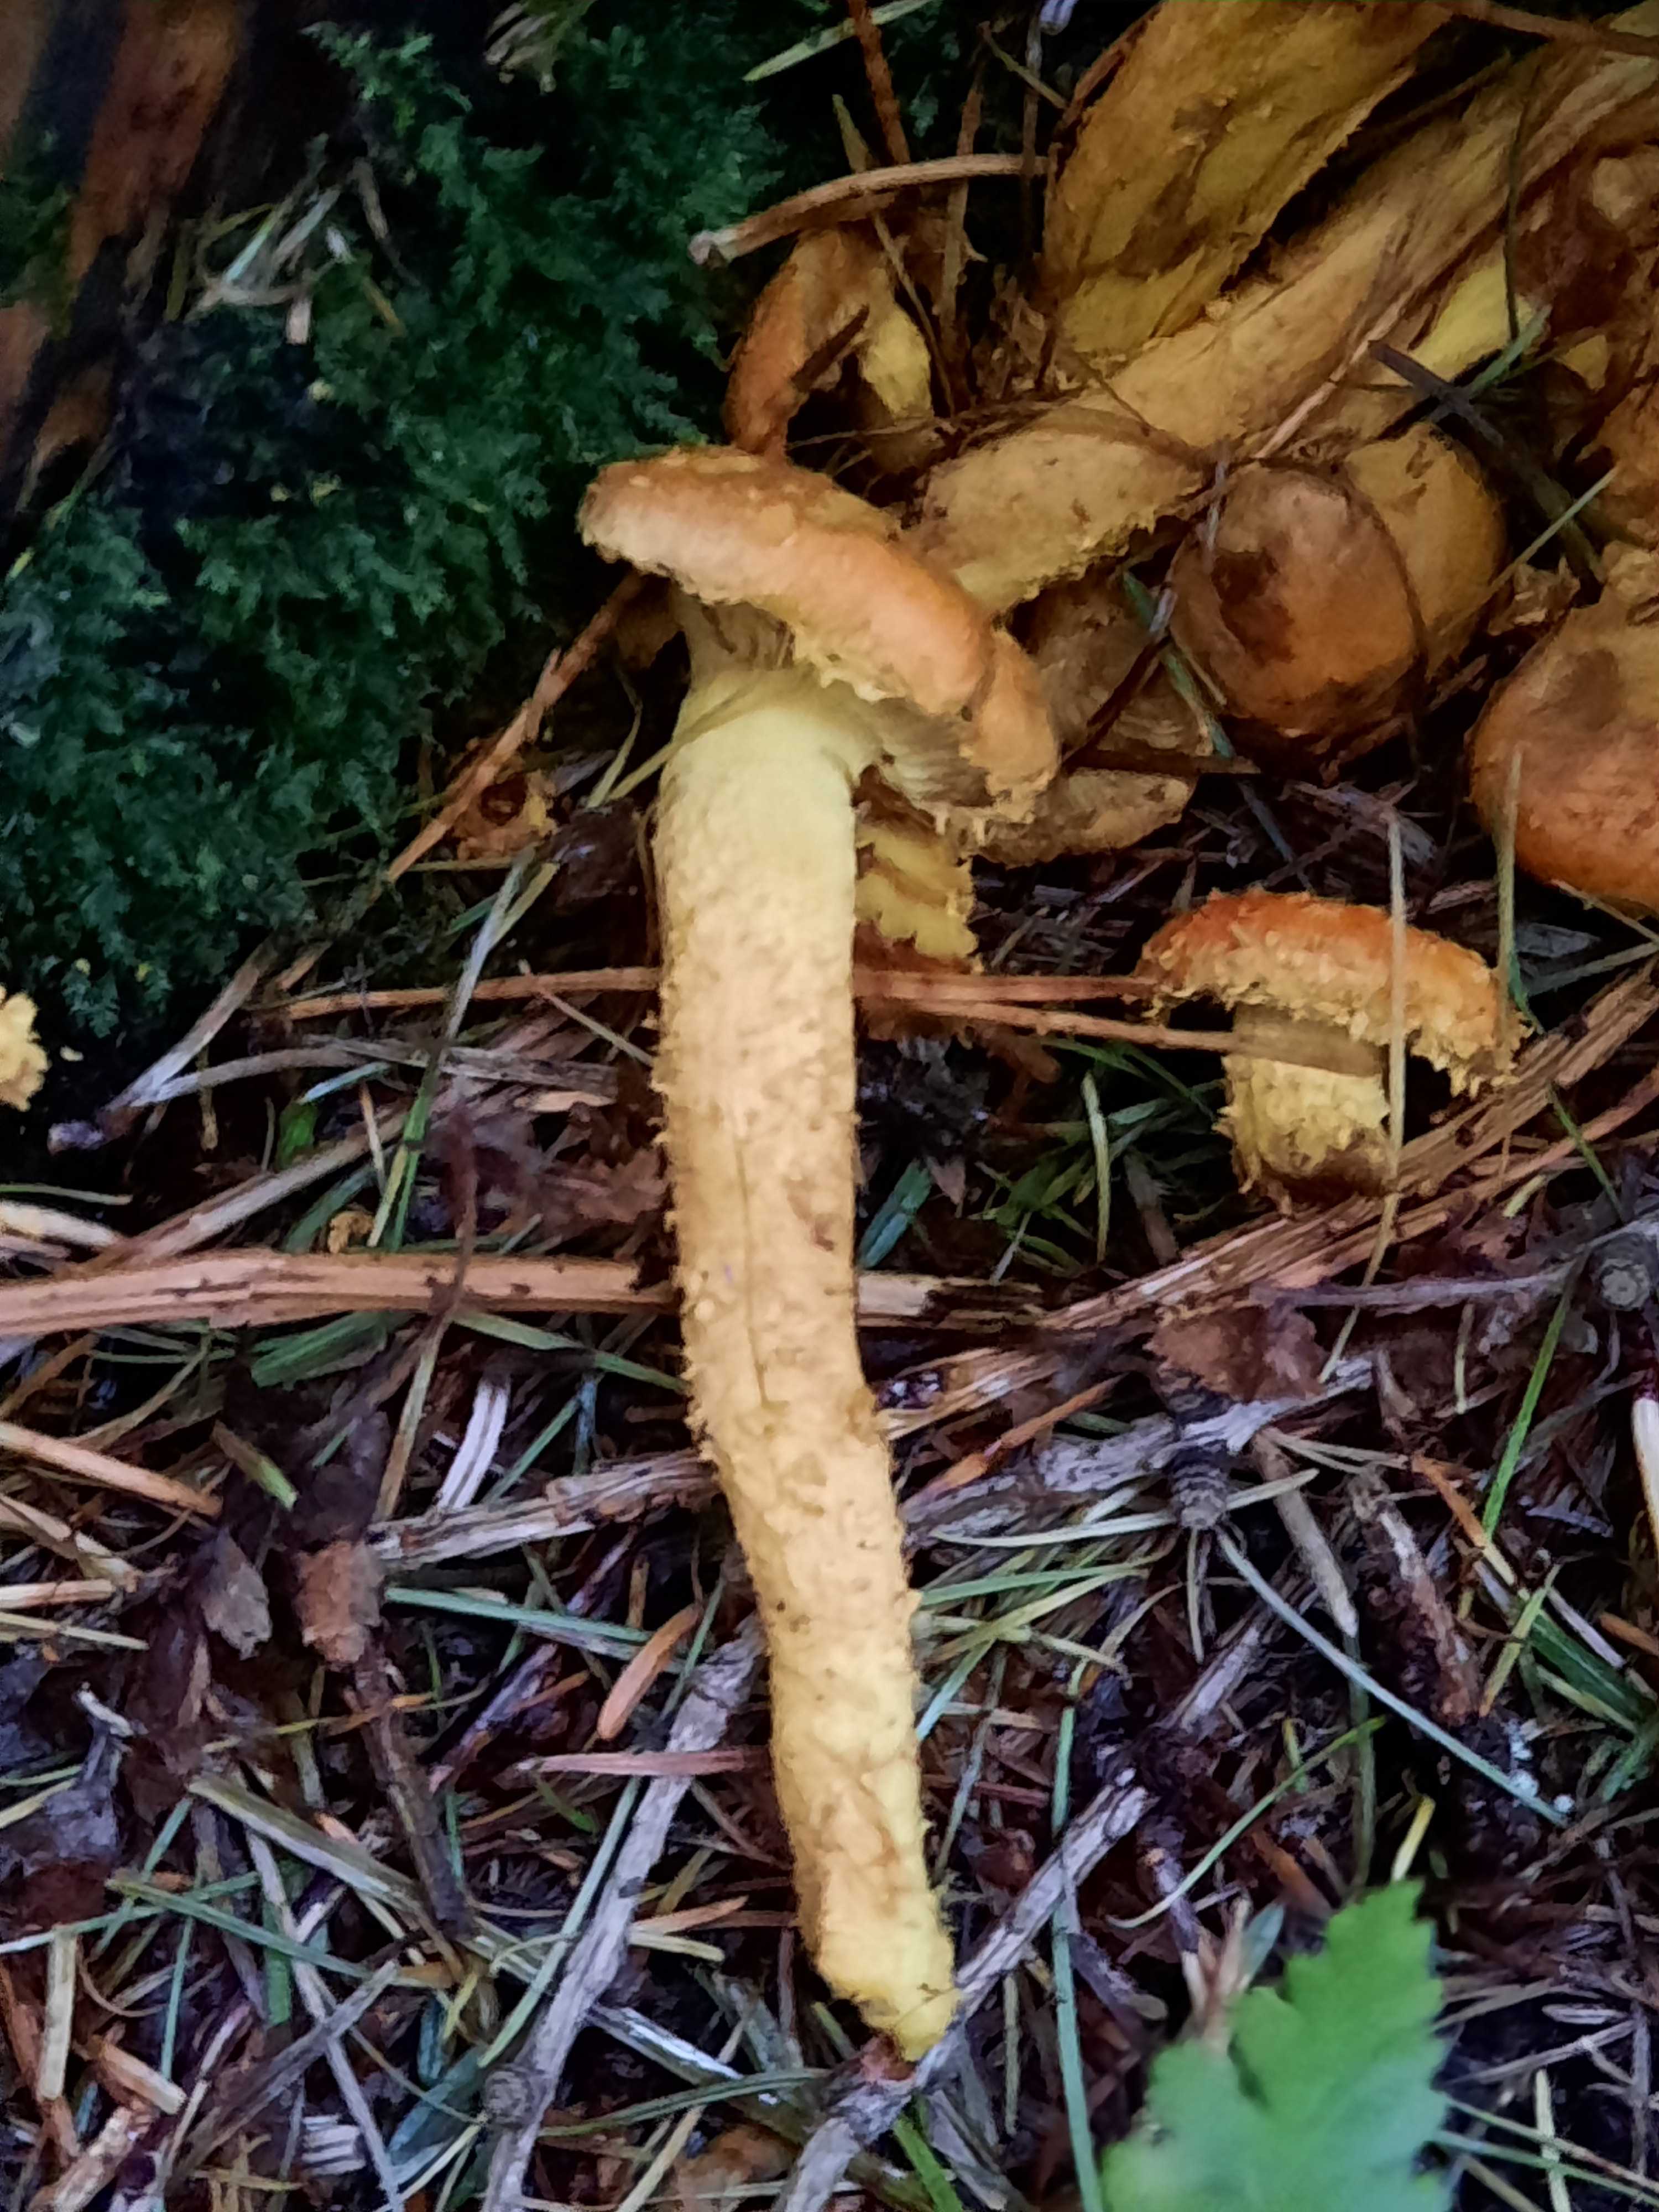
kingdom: Fungi
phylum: Basidiomycota
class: Agaricomycetes
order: Agaricales
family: Strophariaceae
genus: Pholiota
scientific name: Pholiota flammans
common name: flamme-skælhat
